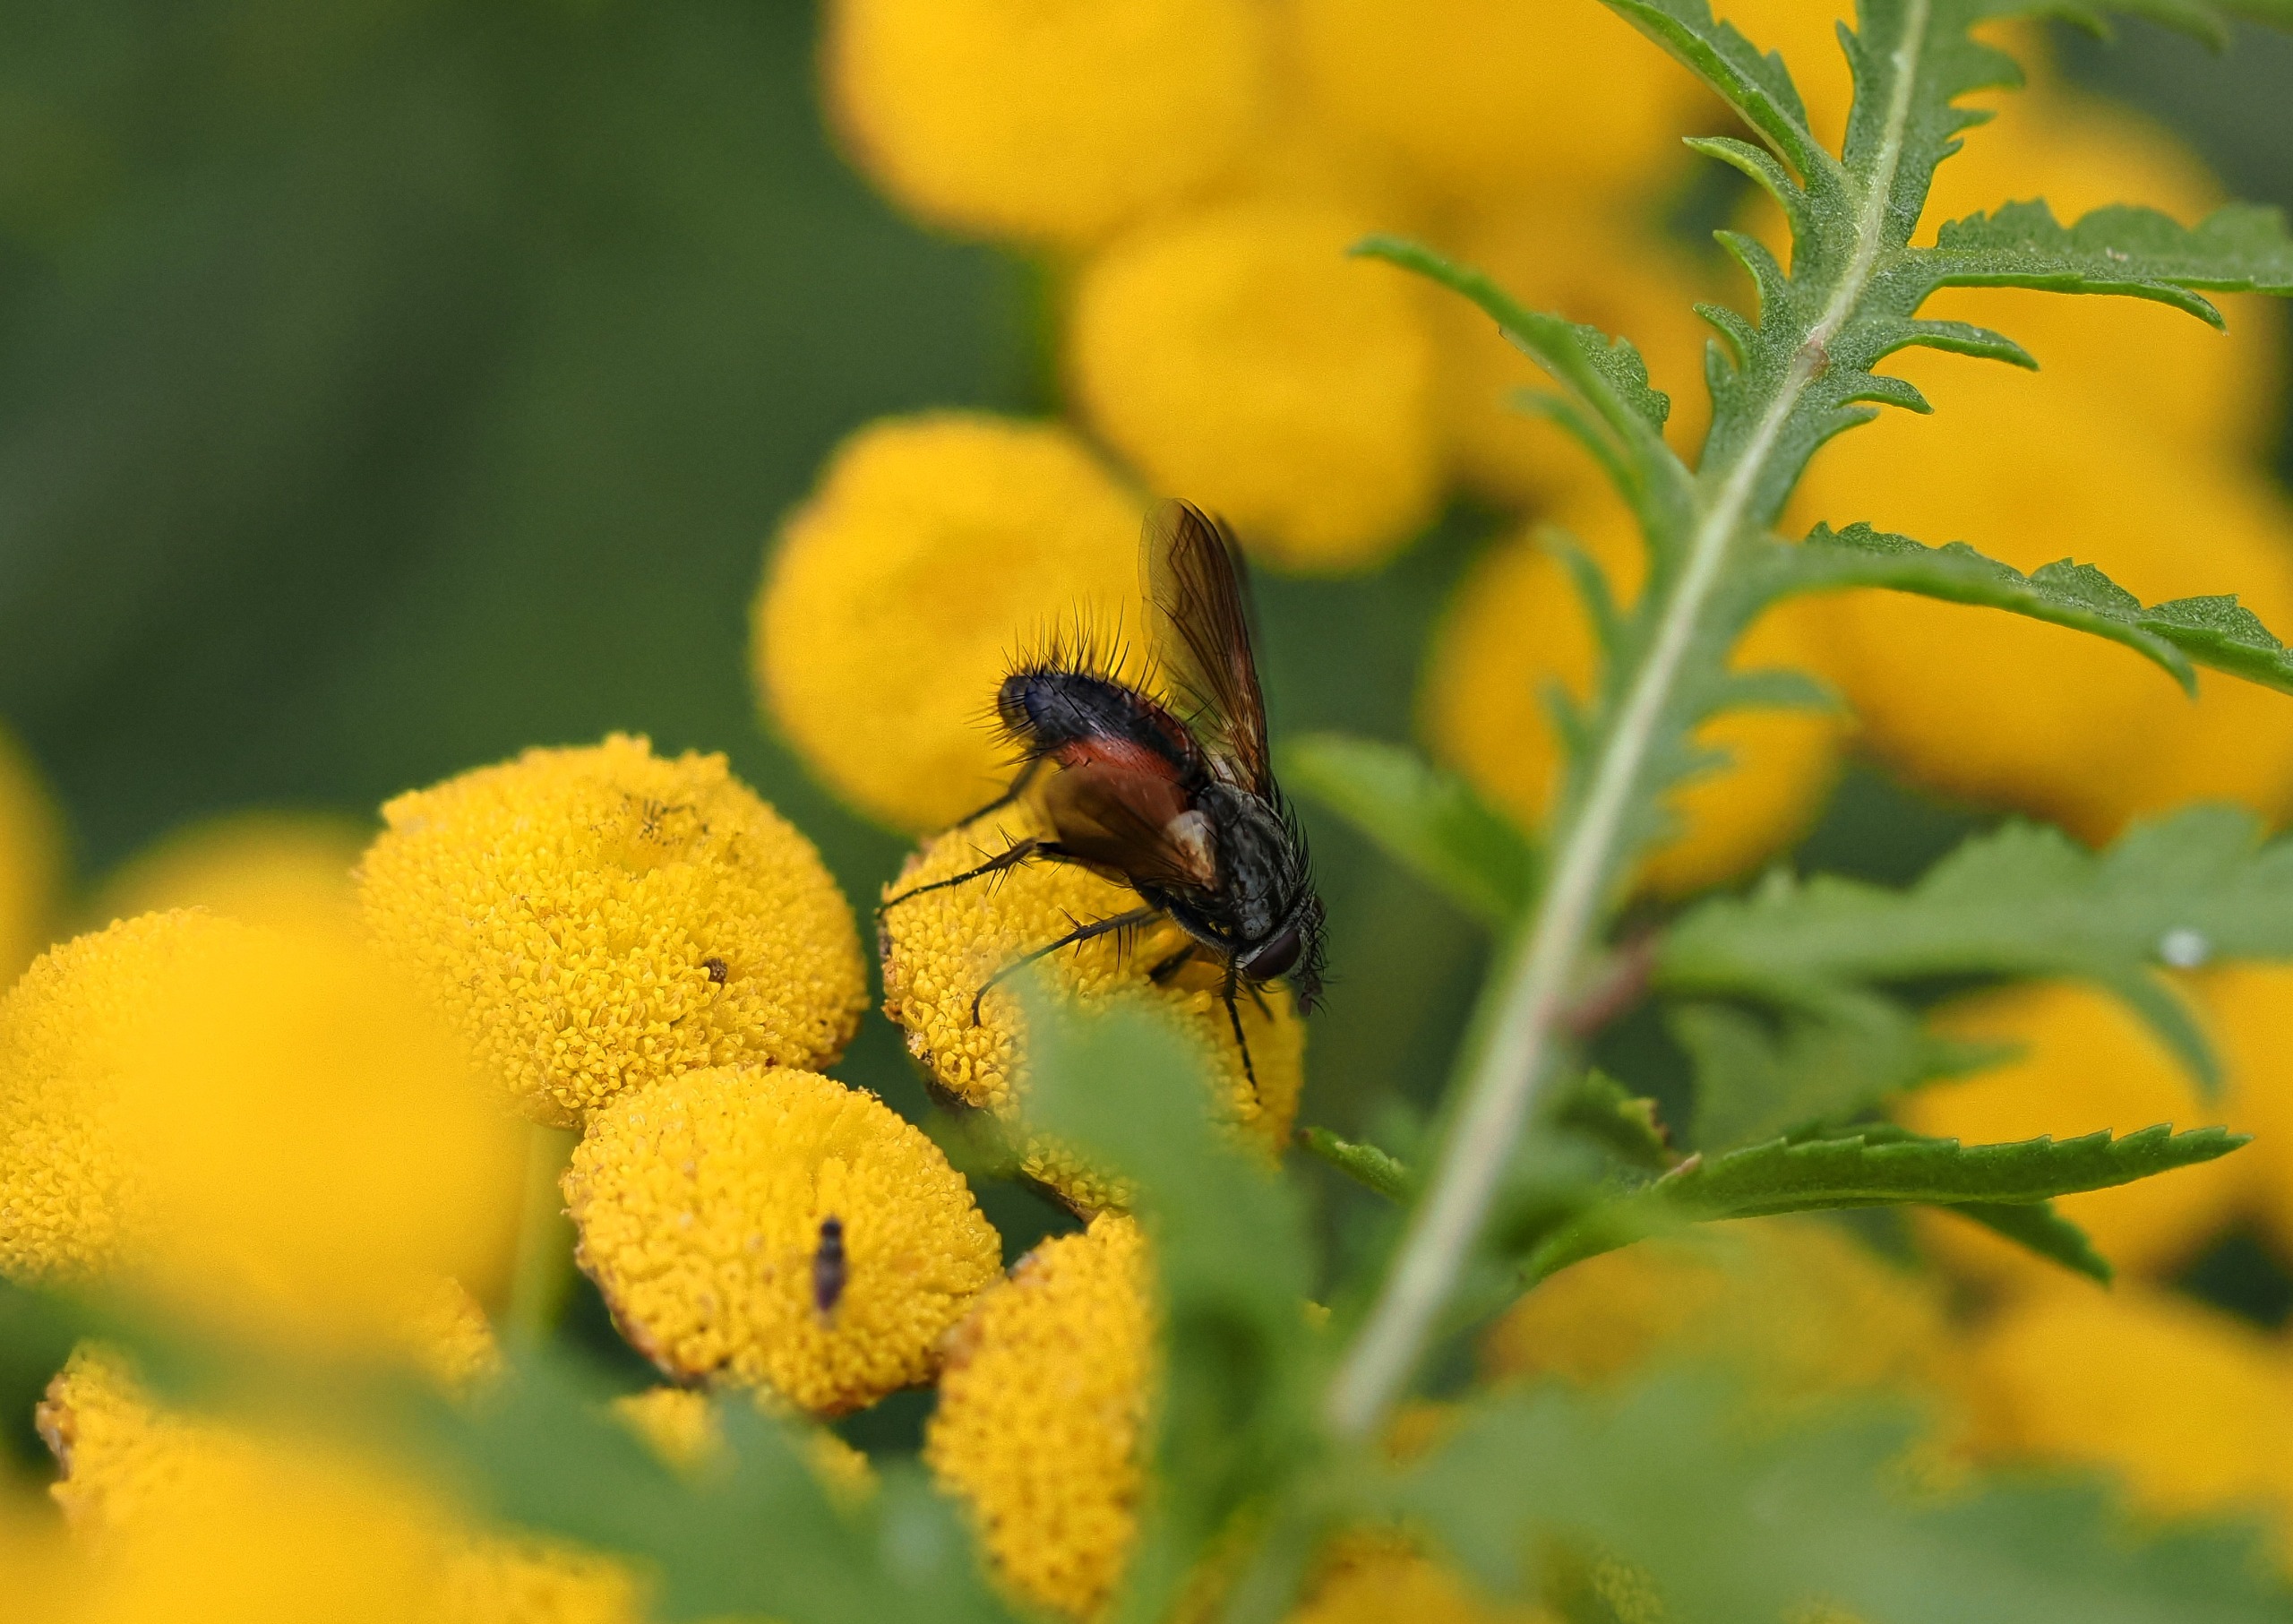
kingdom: Animalia
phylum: Arthropoda
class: Insecta
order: Diptera
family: Tachinidae
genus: Eriothrix
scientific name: Eriothrix rufomaculatus
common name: Rød snylteflue
